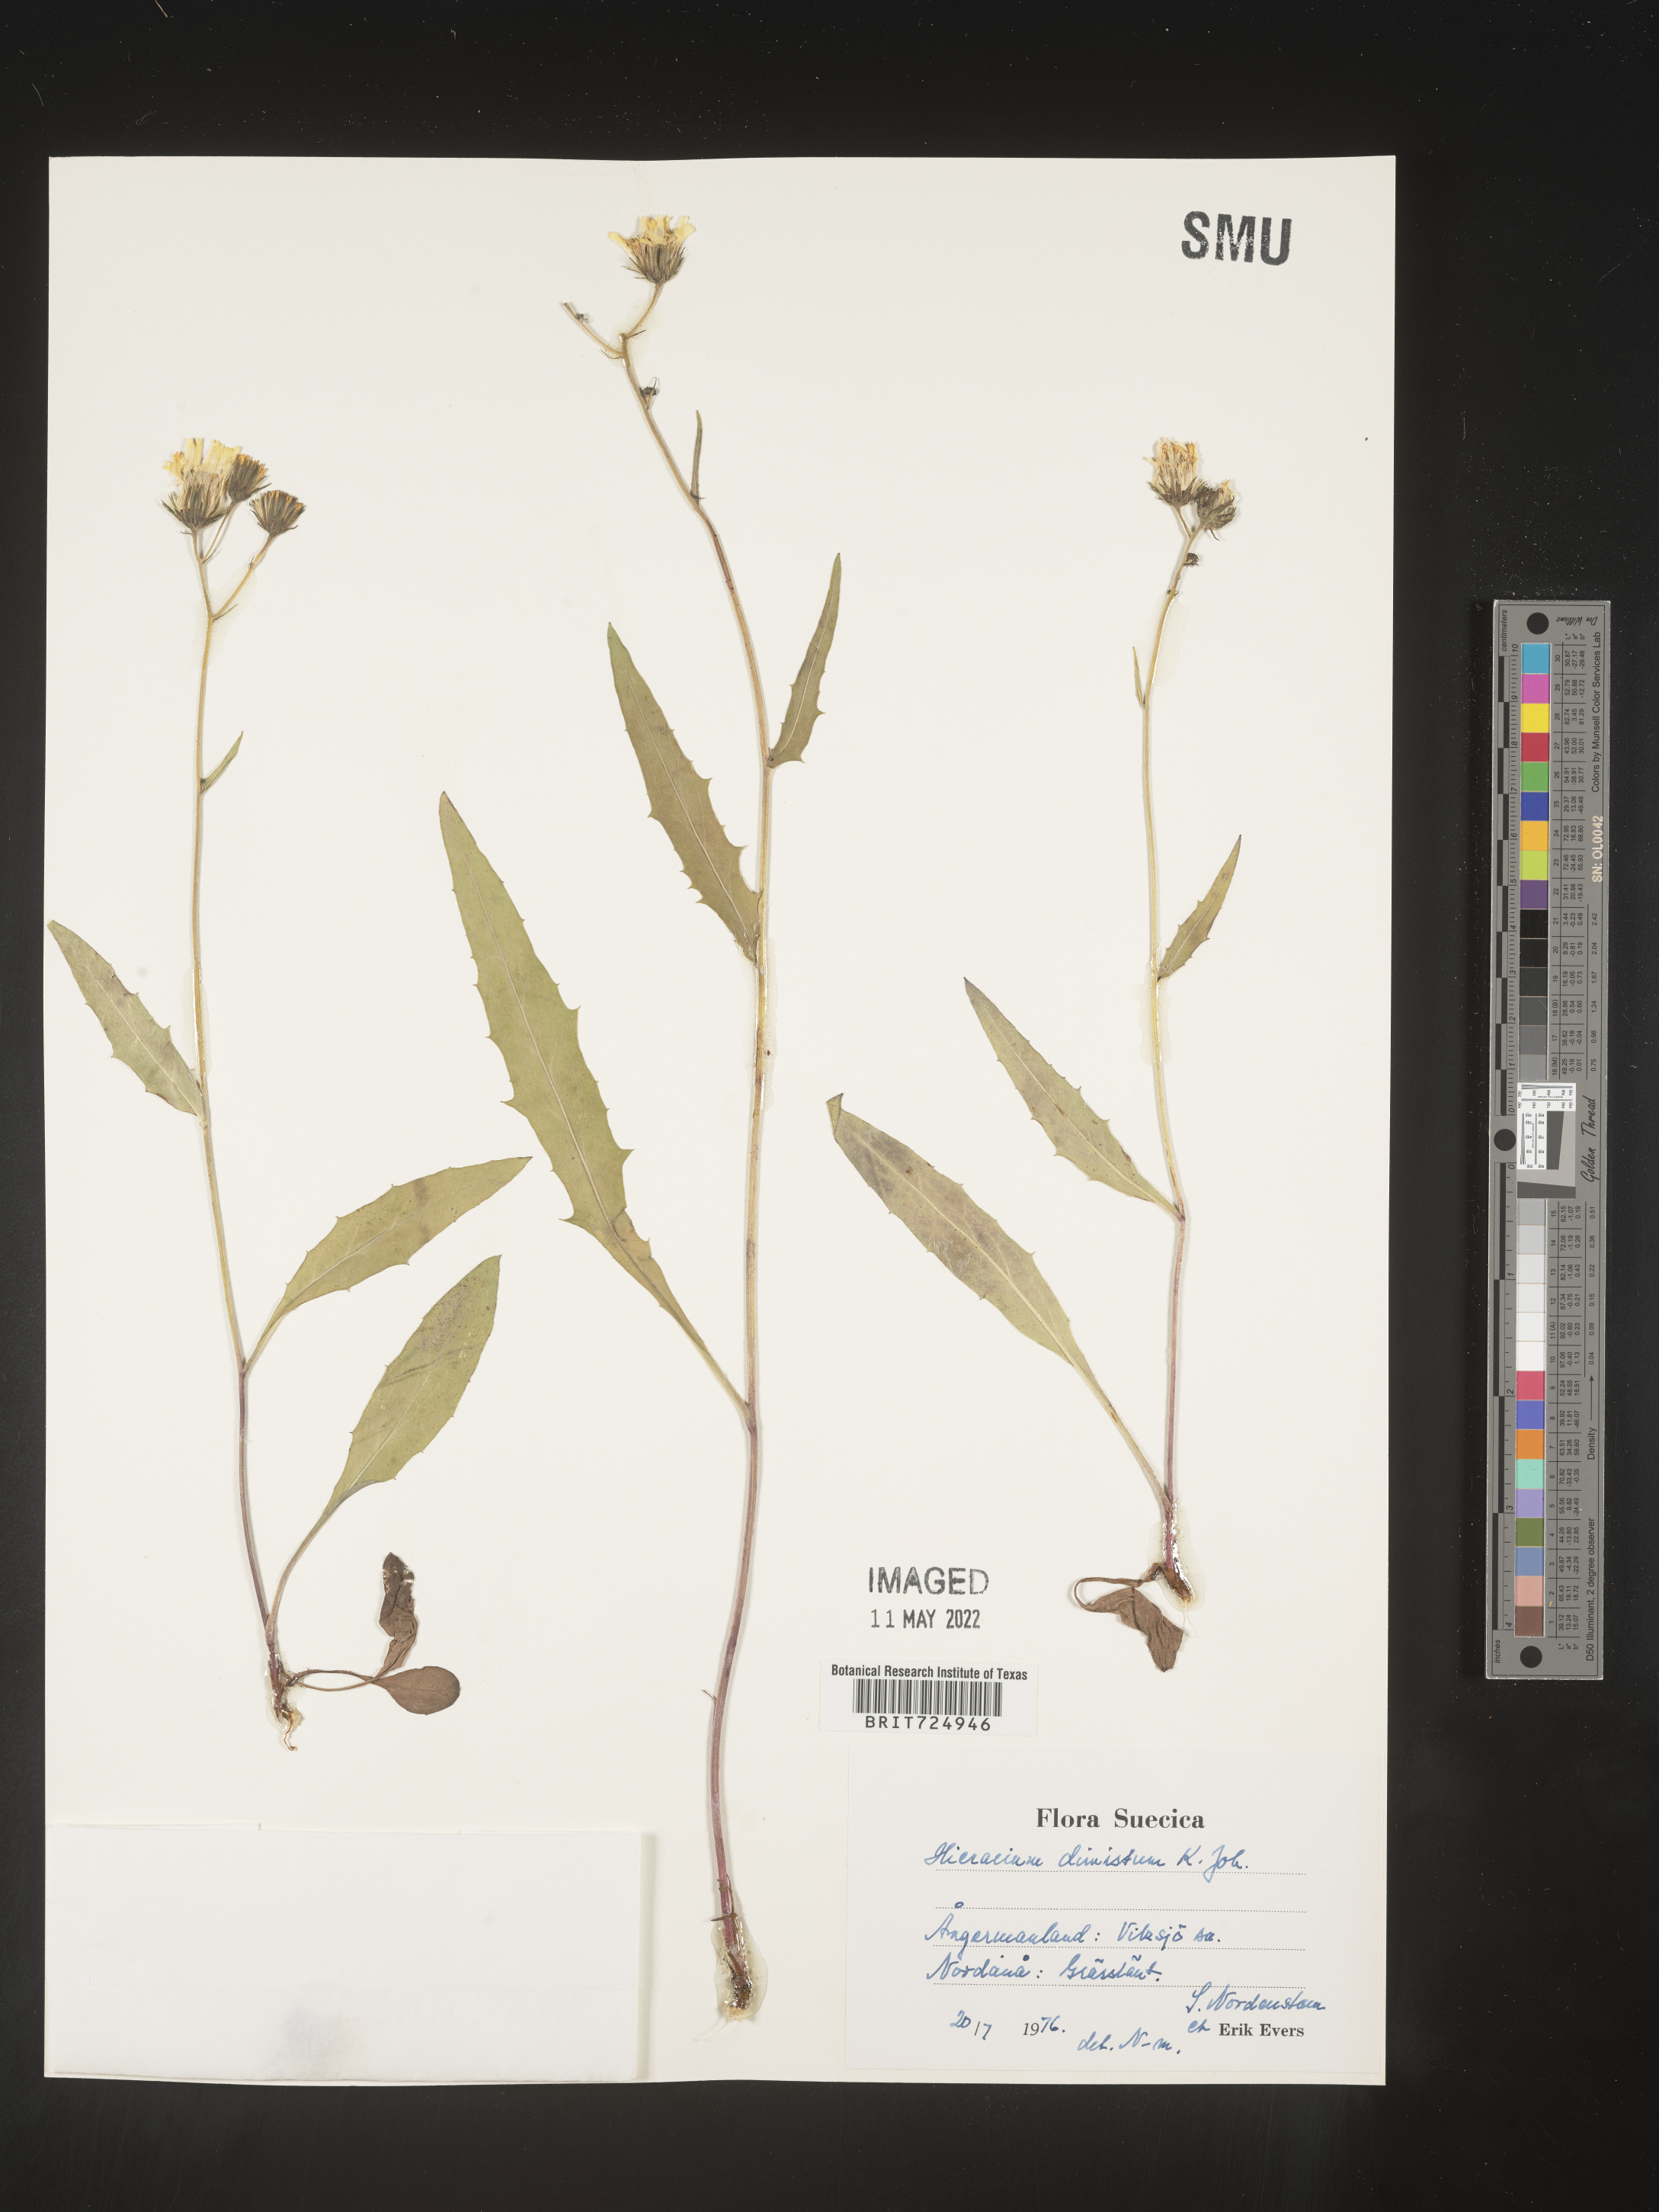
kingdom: Plantae
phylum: Tracheophyta
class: Magnoliopsida
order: Asterales
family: Asteraceae
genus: Hieracium
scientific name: Hieracium
